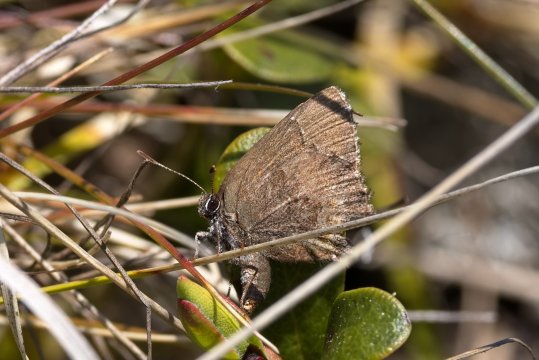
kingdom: Animalia
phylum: Arthropoda
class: Insecta
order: Lepidoptera
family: Lycaenidae
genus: Callophrys
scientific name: Callophrys polios
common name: Hoary Elfin
